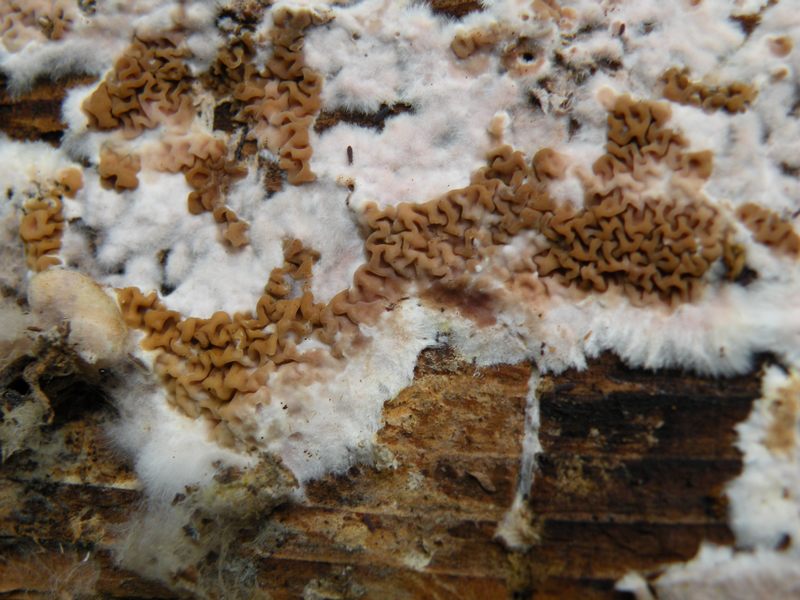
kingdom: Fungi
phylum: Basidiomycota
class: Agaricomycetes
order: Boletales
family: Serpulaceae
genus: Serpula
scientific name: Serpula himantioides
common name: tyndkødet hussvamp
